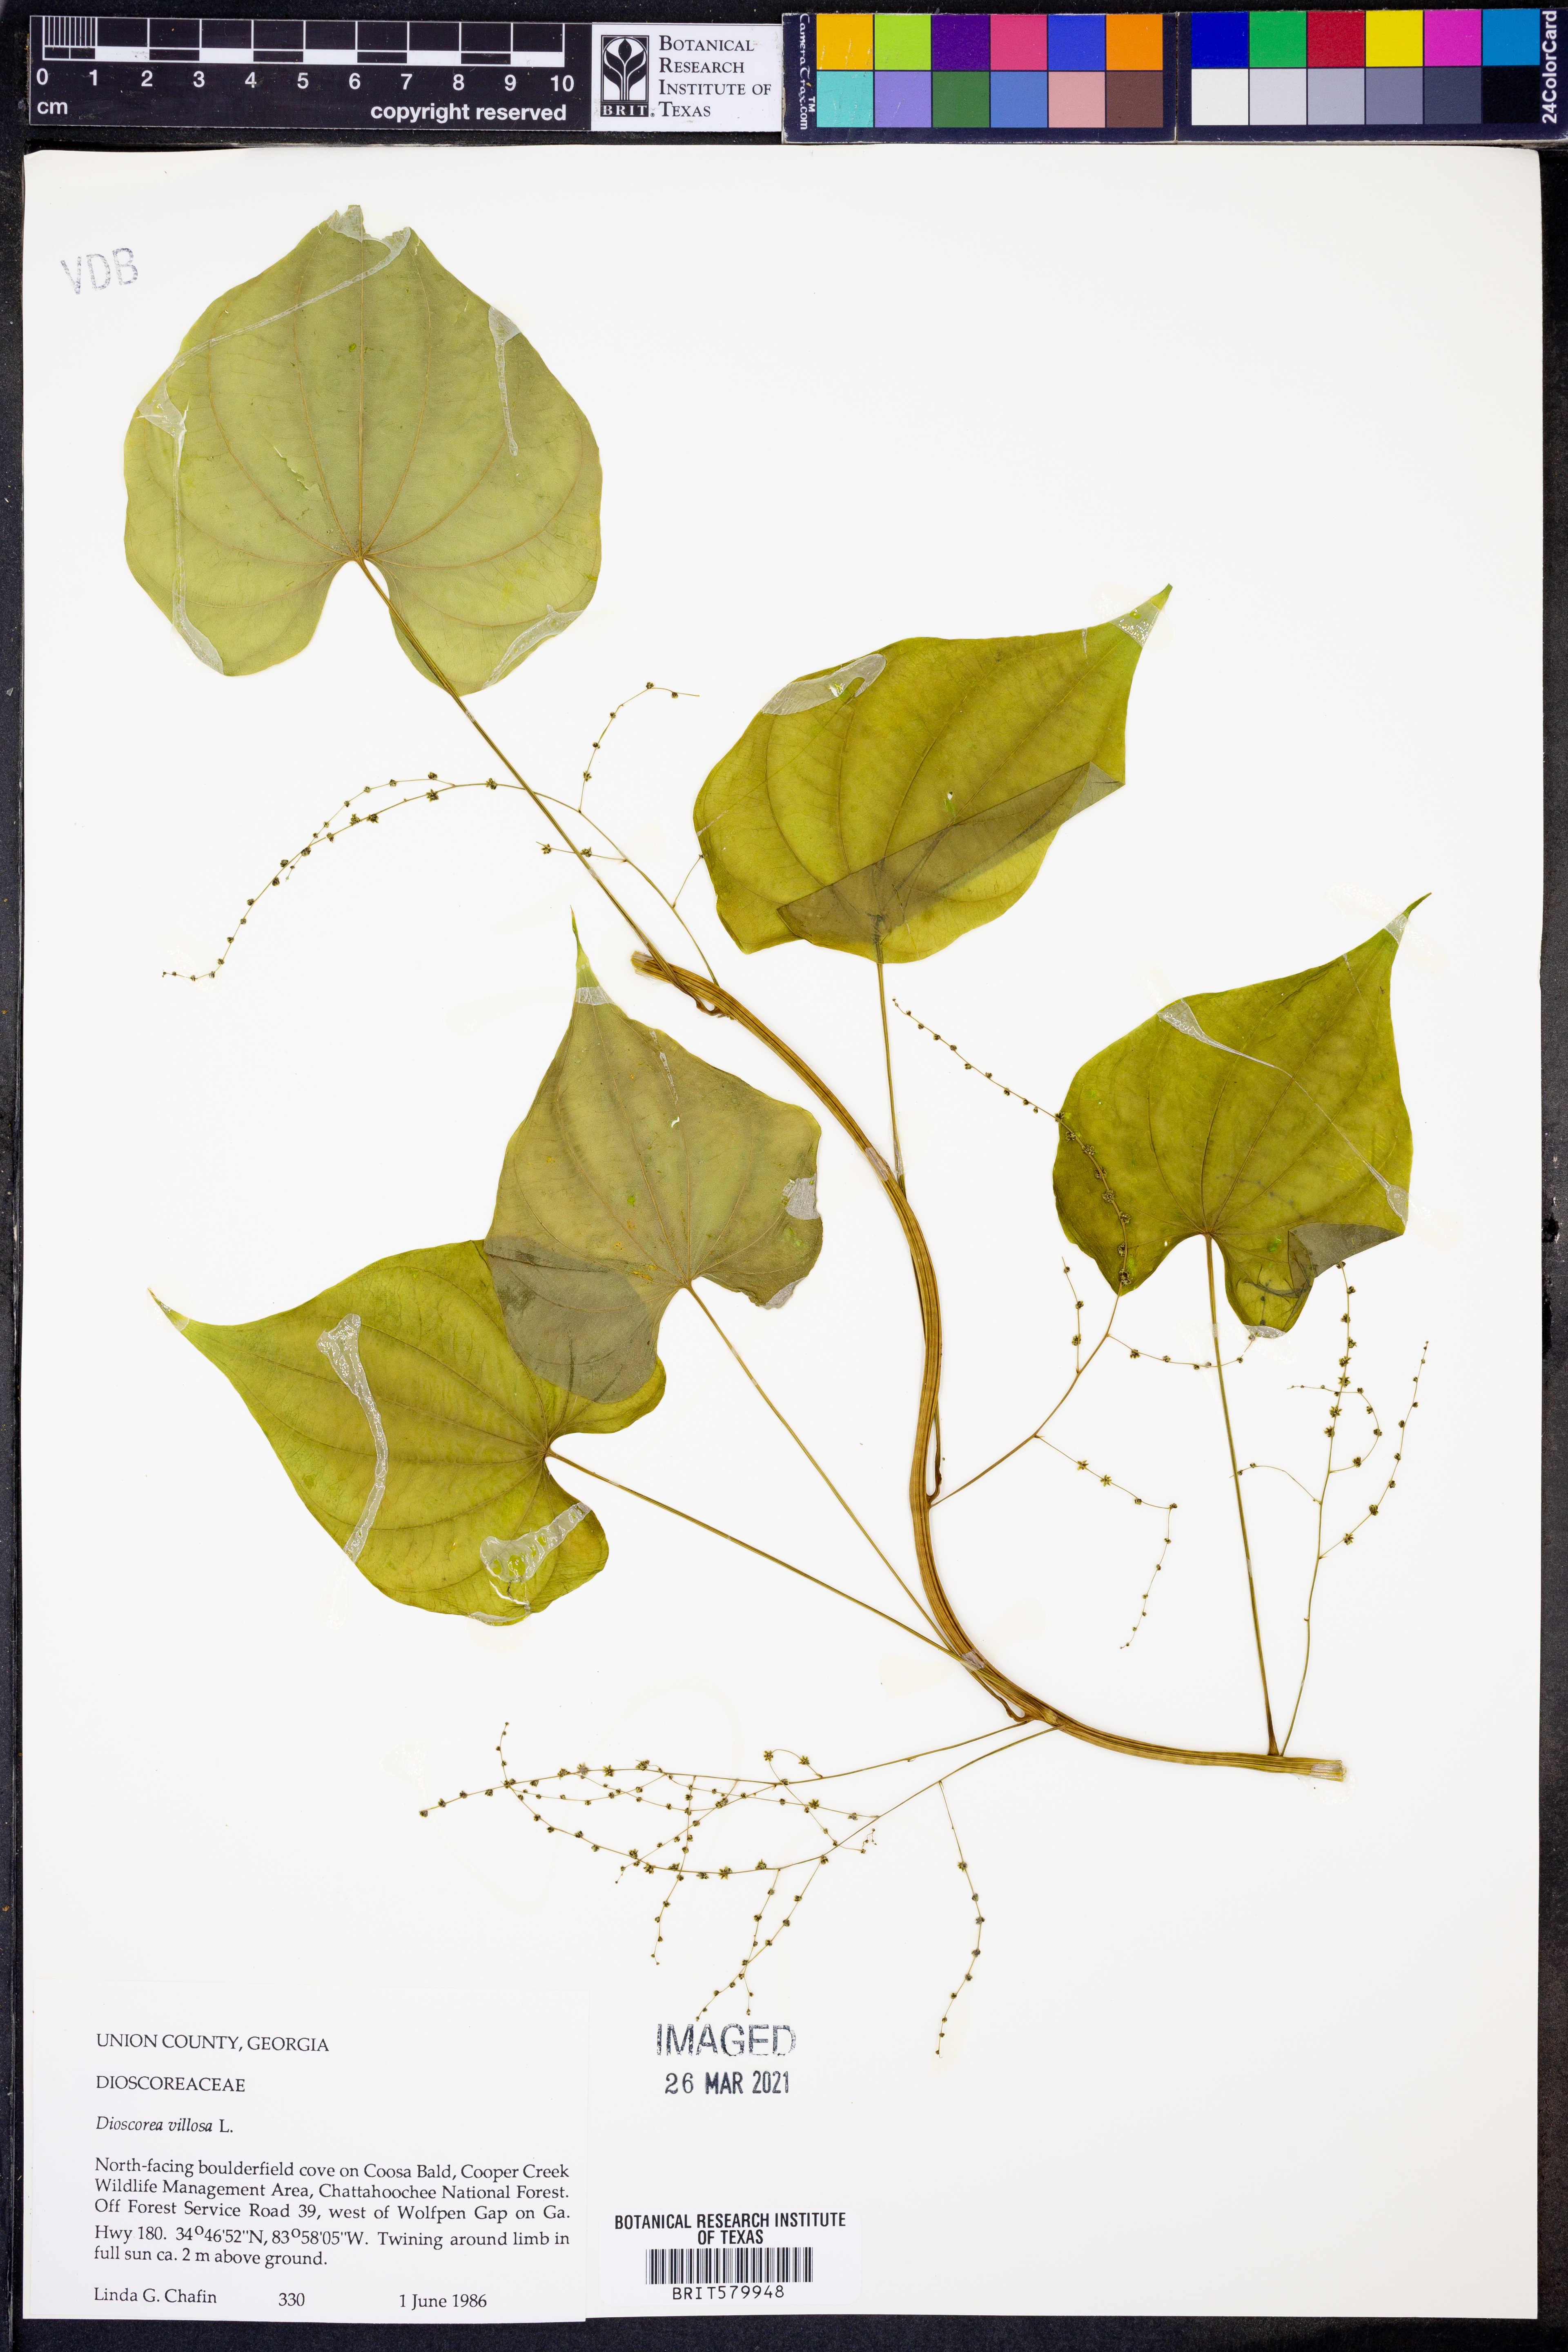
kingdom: Plantae
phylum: Tracheophyta
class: Liliopsida
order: Dioscoreales
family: Dioscoreaceae
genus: Dioscorea
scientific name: Dioscorea villosa
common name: Wild yam
